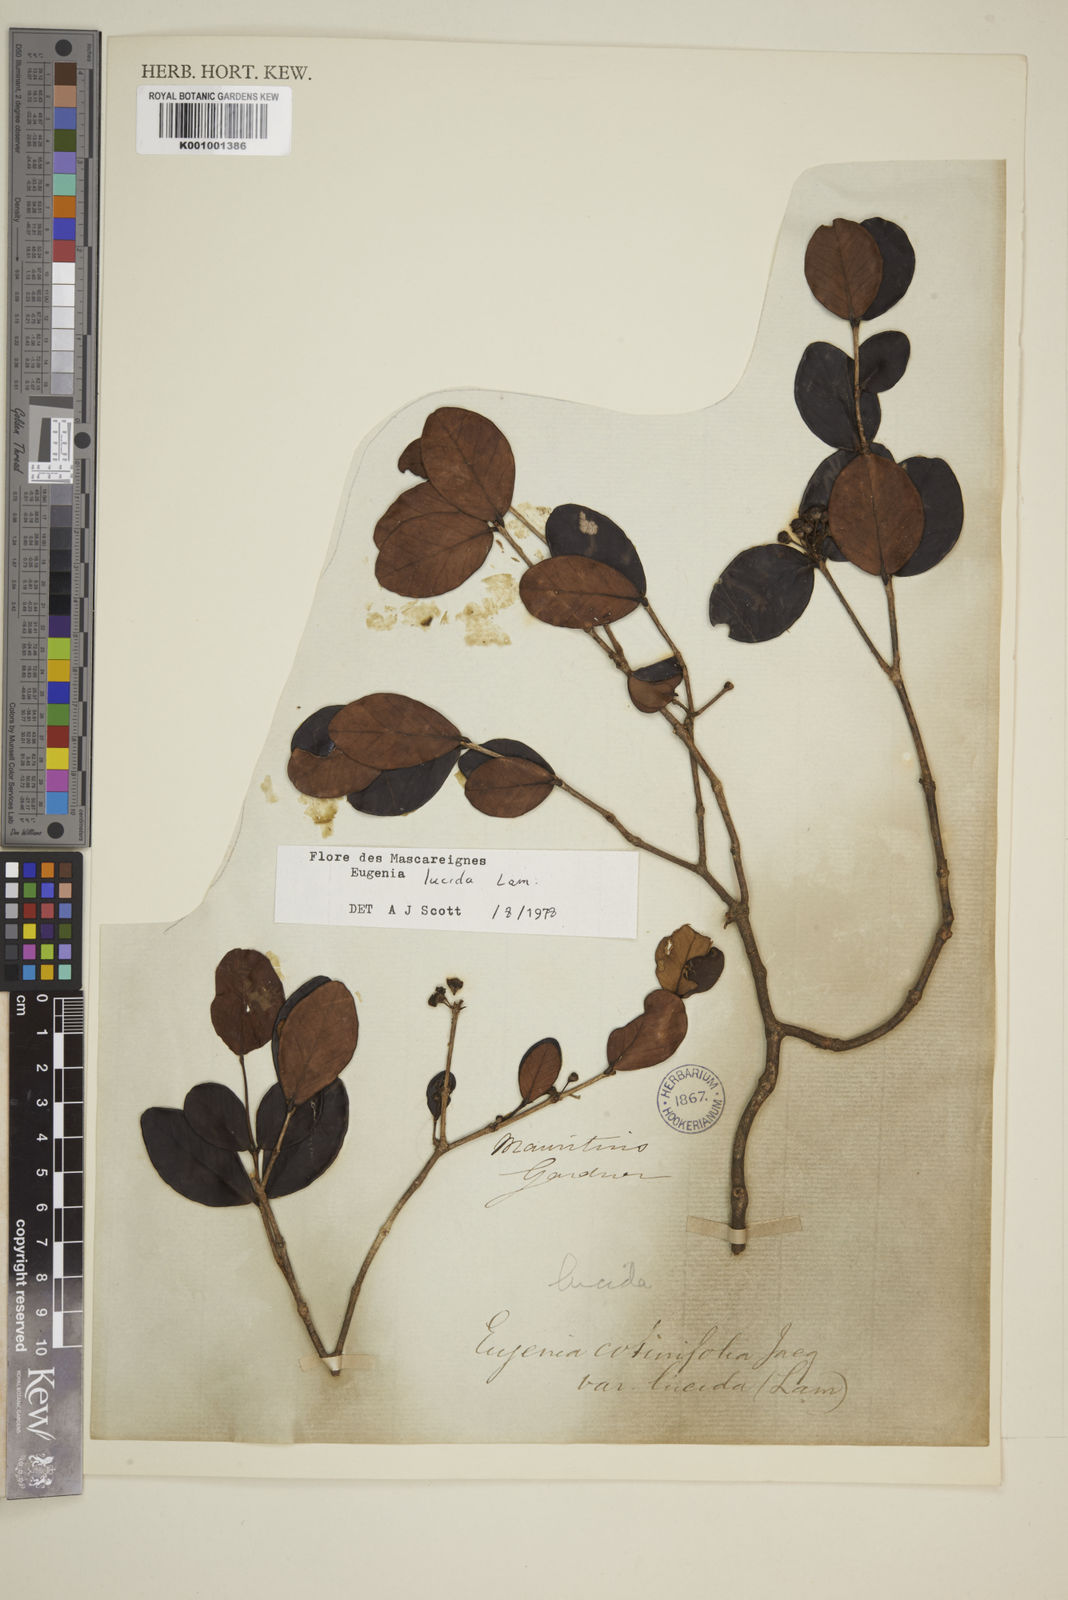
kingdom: Plantae
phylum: Tracheophyta
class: Magnoliopsida
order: Myrtales
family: Myrtaceae
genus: Eugenia
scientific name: Eugenia lucida
